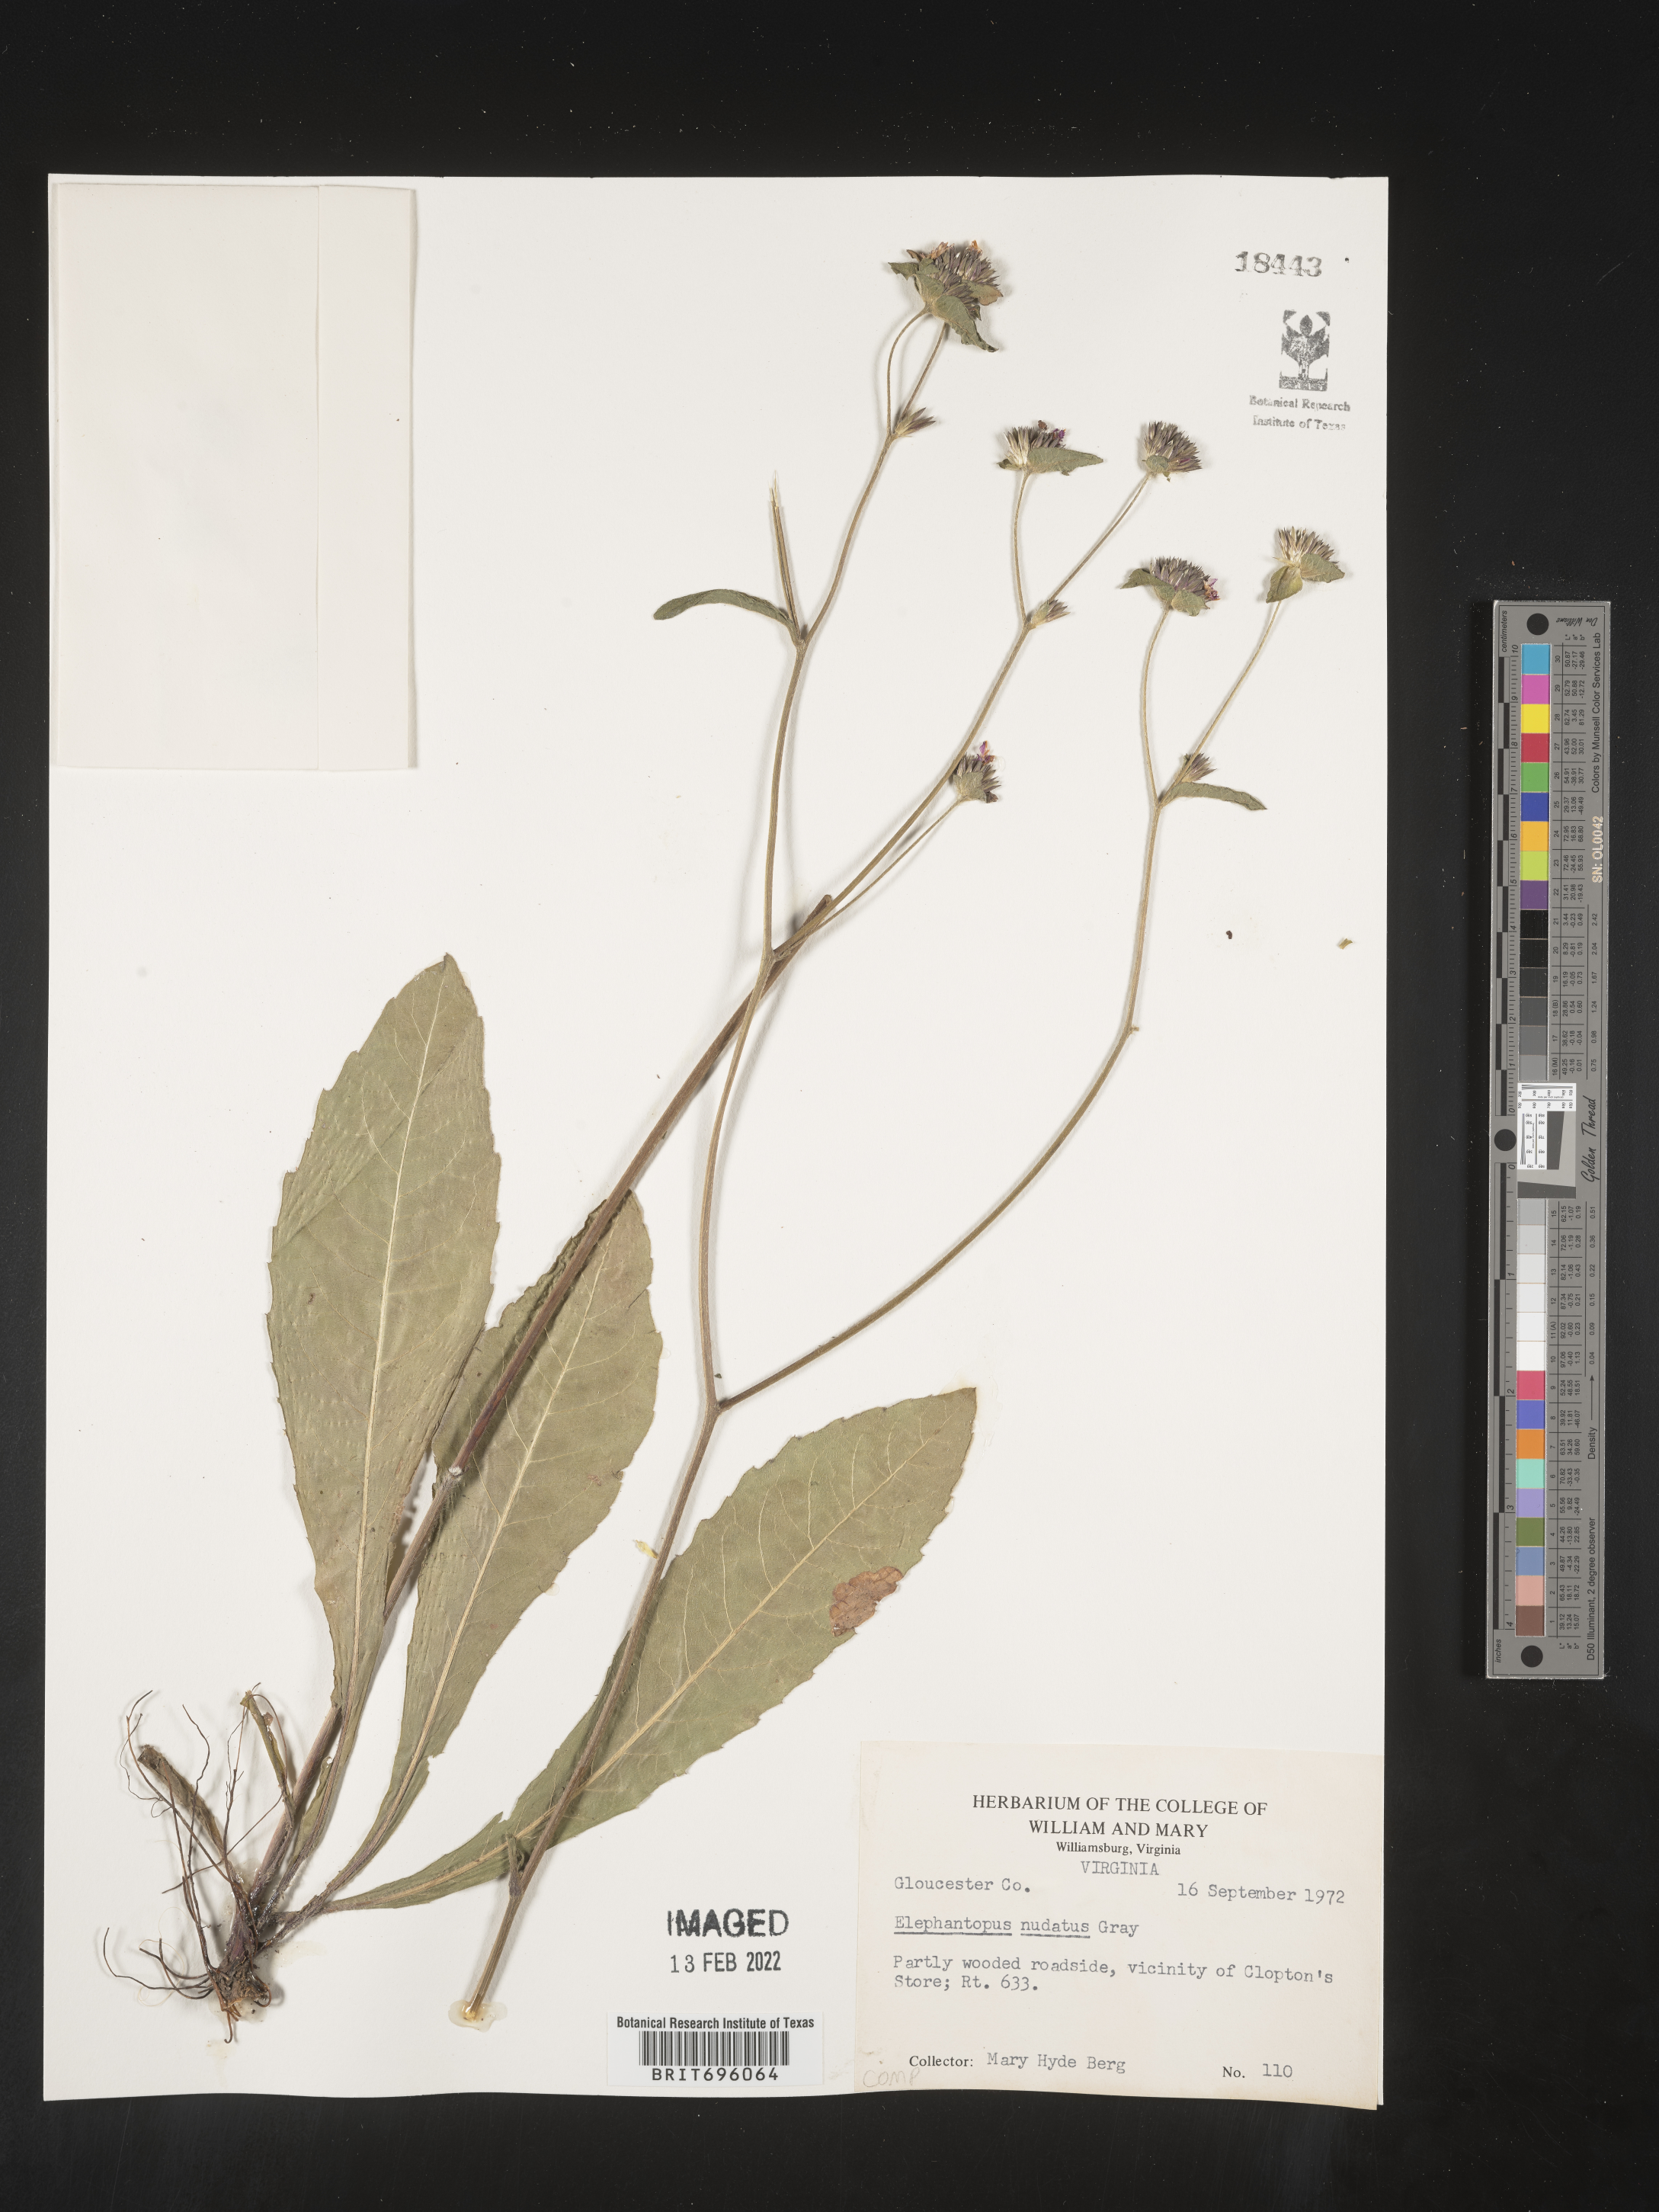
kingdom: Plantae
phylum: Tracheophyta
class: Magnoliopsida
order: Asterales
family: Asteraceae
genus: Elephantopus
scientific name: Elephantopus nudatus
